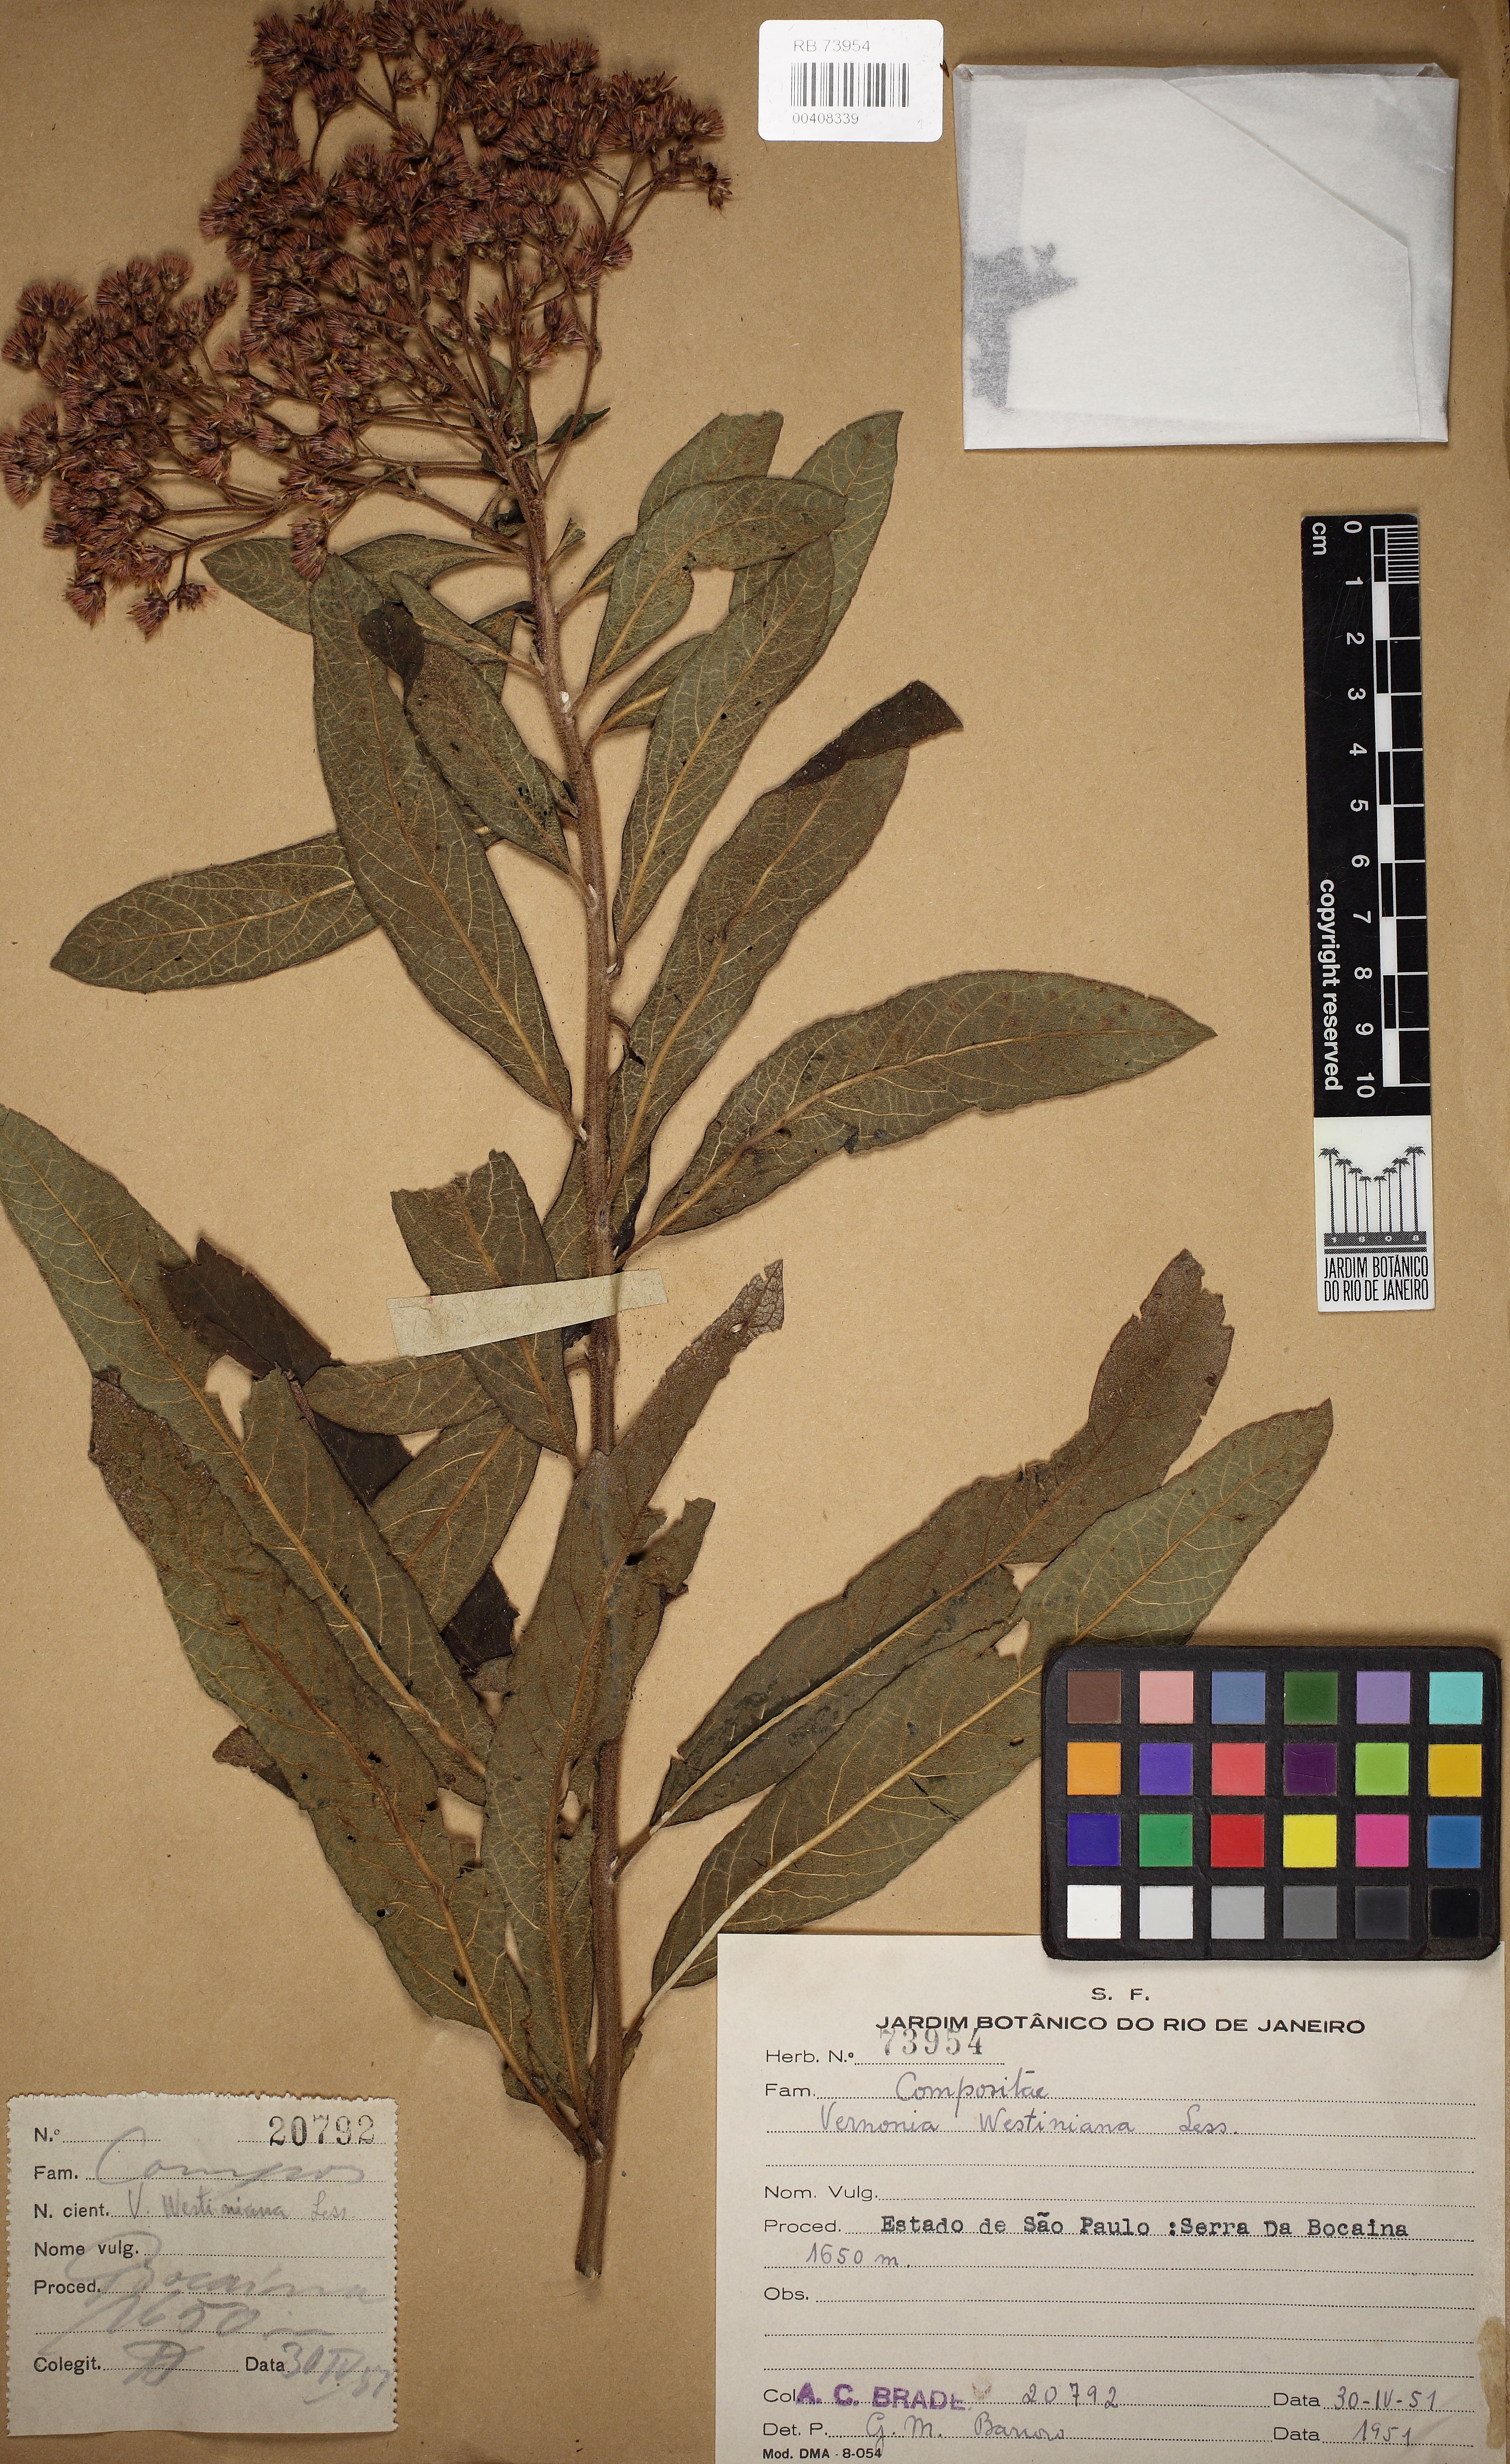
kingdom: Plantae
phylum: Tracheophyta
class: Magnoliopsida
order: Asterales
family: Asteraceae
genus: Vernonanthura
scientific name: Vernonanthura westiniana
